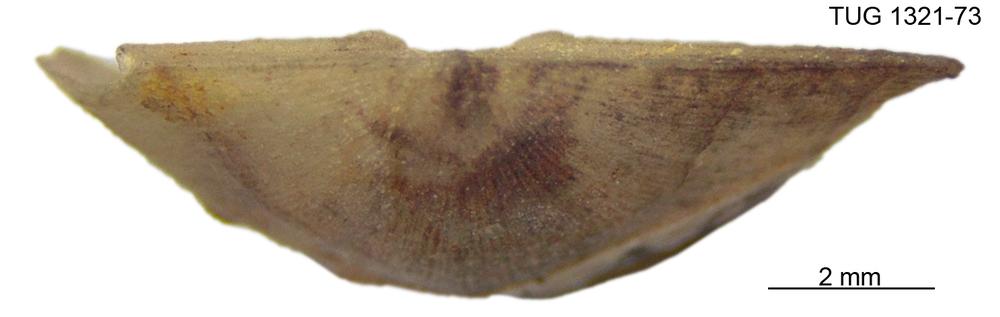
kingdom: Animalia
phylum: Brachiopoda
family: Sowerbyellidae
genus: Sowerbyella
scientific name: Sowerbyella liliifera
